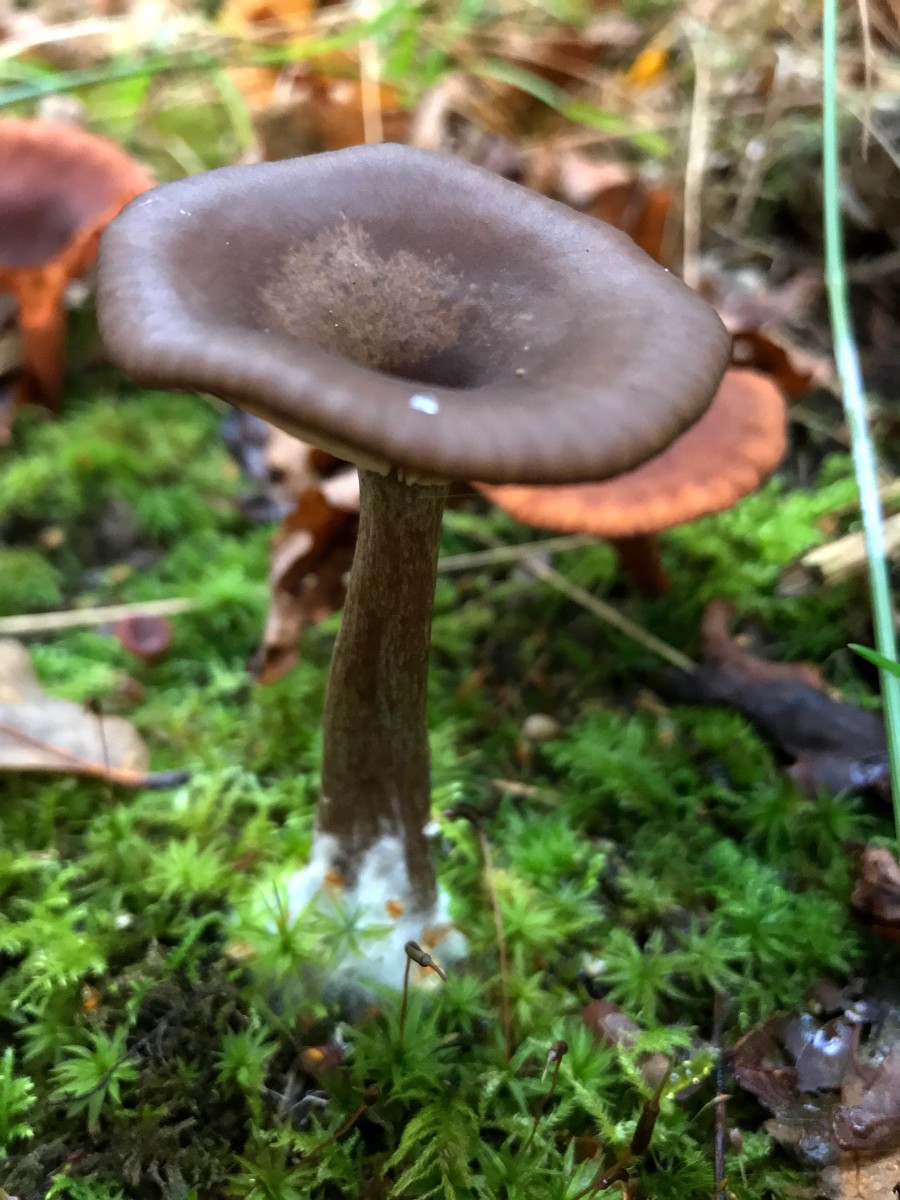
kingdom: Fungi
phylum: Basidiomycota
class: Agaricomycetes
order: Agaricales
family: Pseudoclitocybaceae
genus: Pseudoclitocybe
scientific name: Pseudoclitocybe cyathiformis
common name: almindelig bægertragthat
